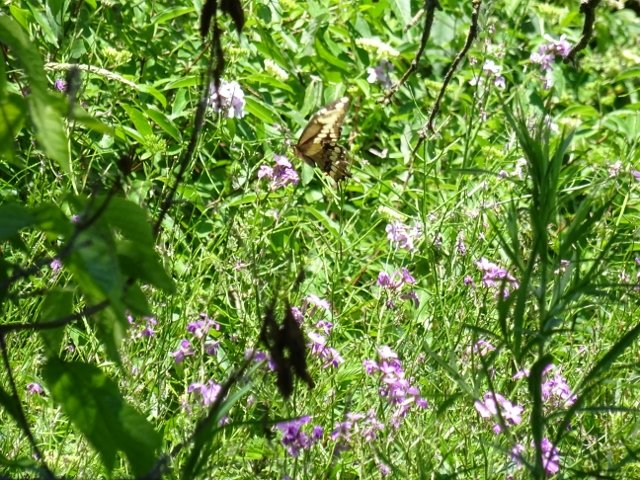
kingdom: Animalia
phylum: Arthropoda
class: Insecta
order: Lepidoptera
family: Papilionidae
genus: Papilio
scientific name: Papilio cresphontes
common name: Eastern Giant Swallowtail
